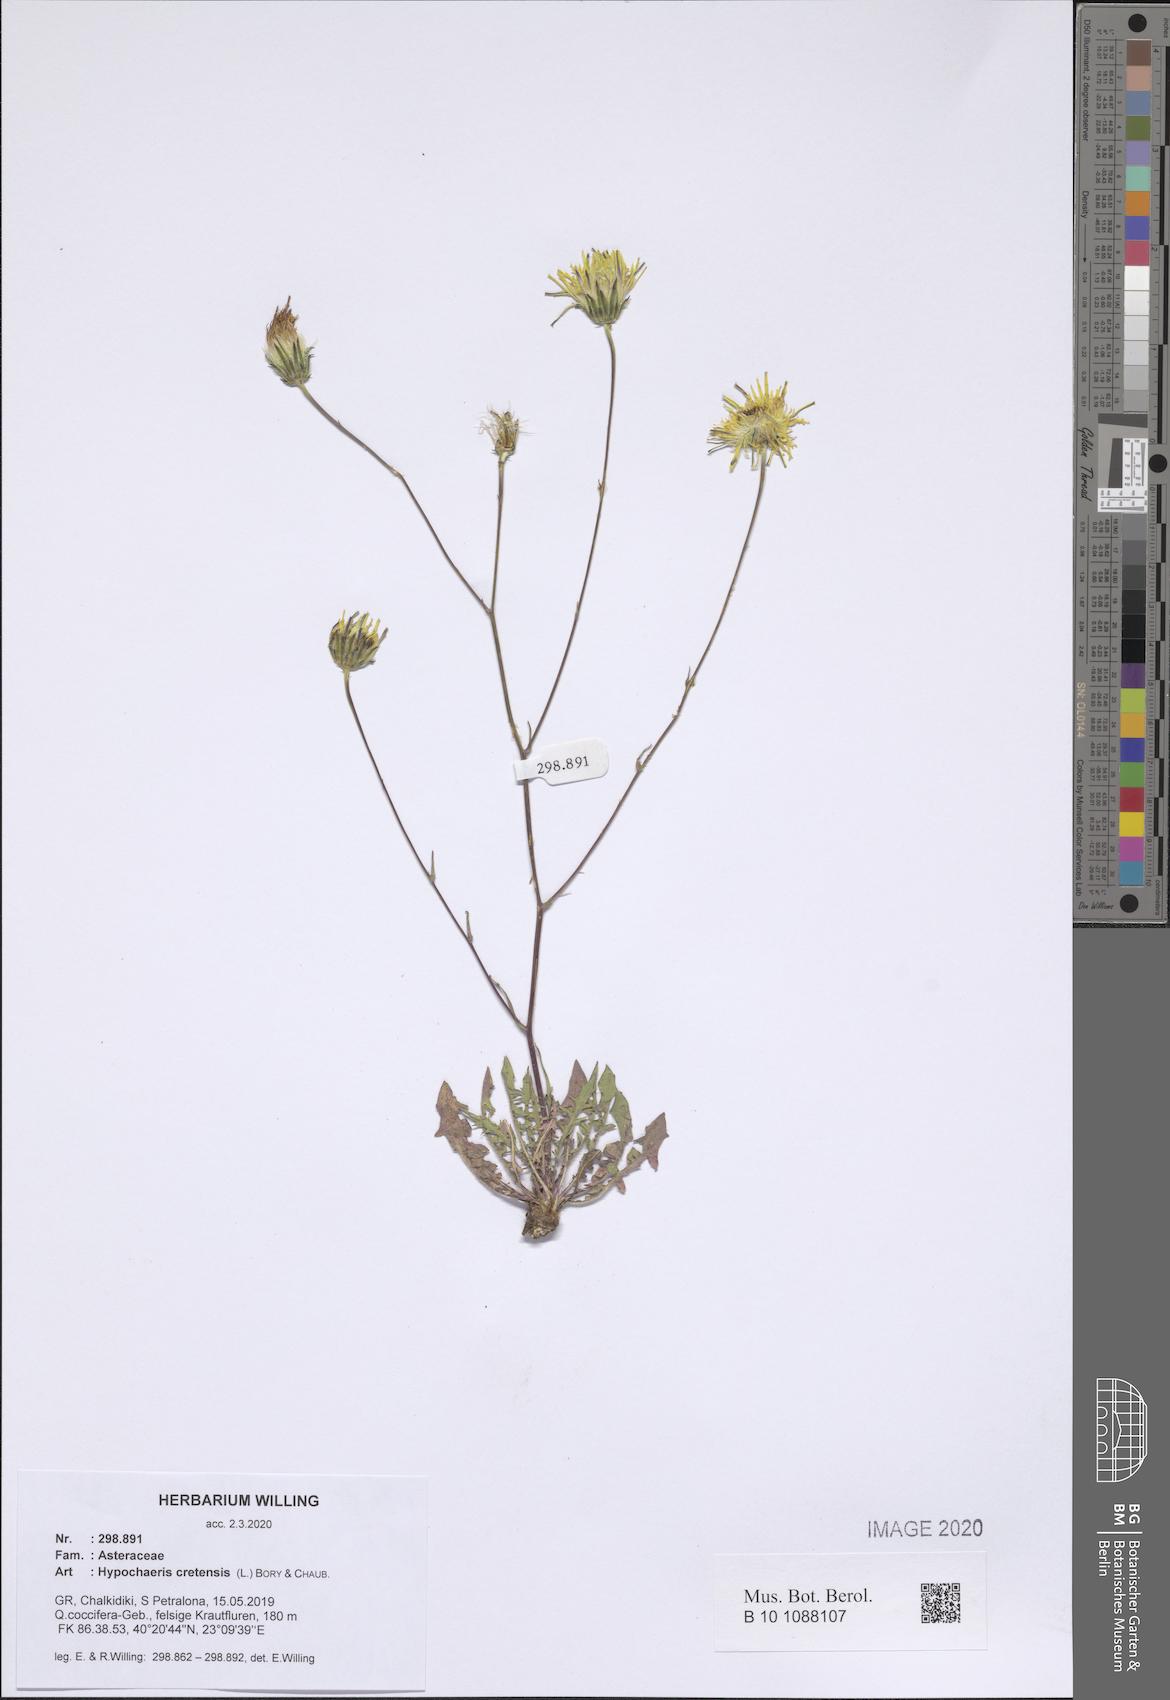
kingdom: Plantae
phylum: Tracheophyta
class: Magnoliopsida
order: Asterales
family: Asteraceae
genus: Hypochaeris
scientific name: Hypochaeris cretensis
